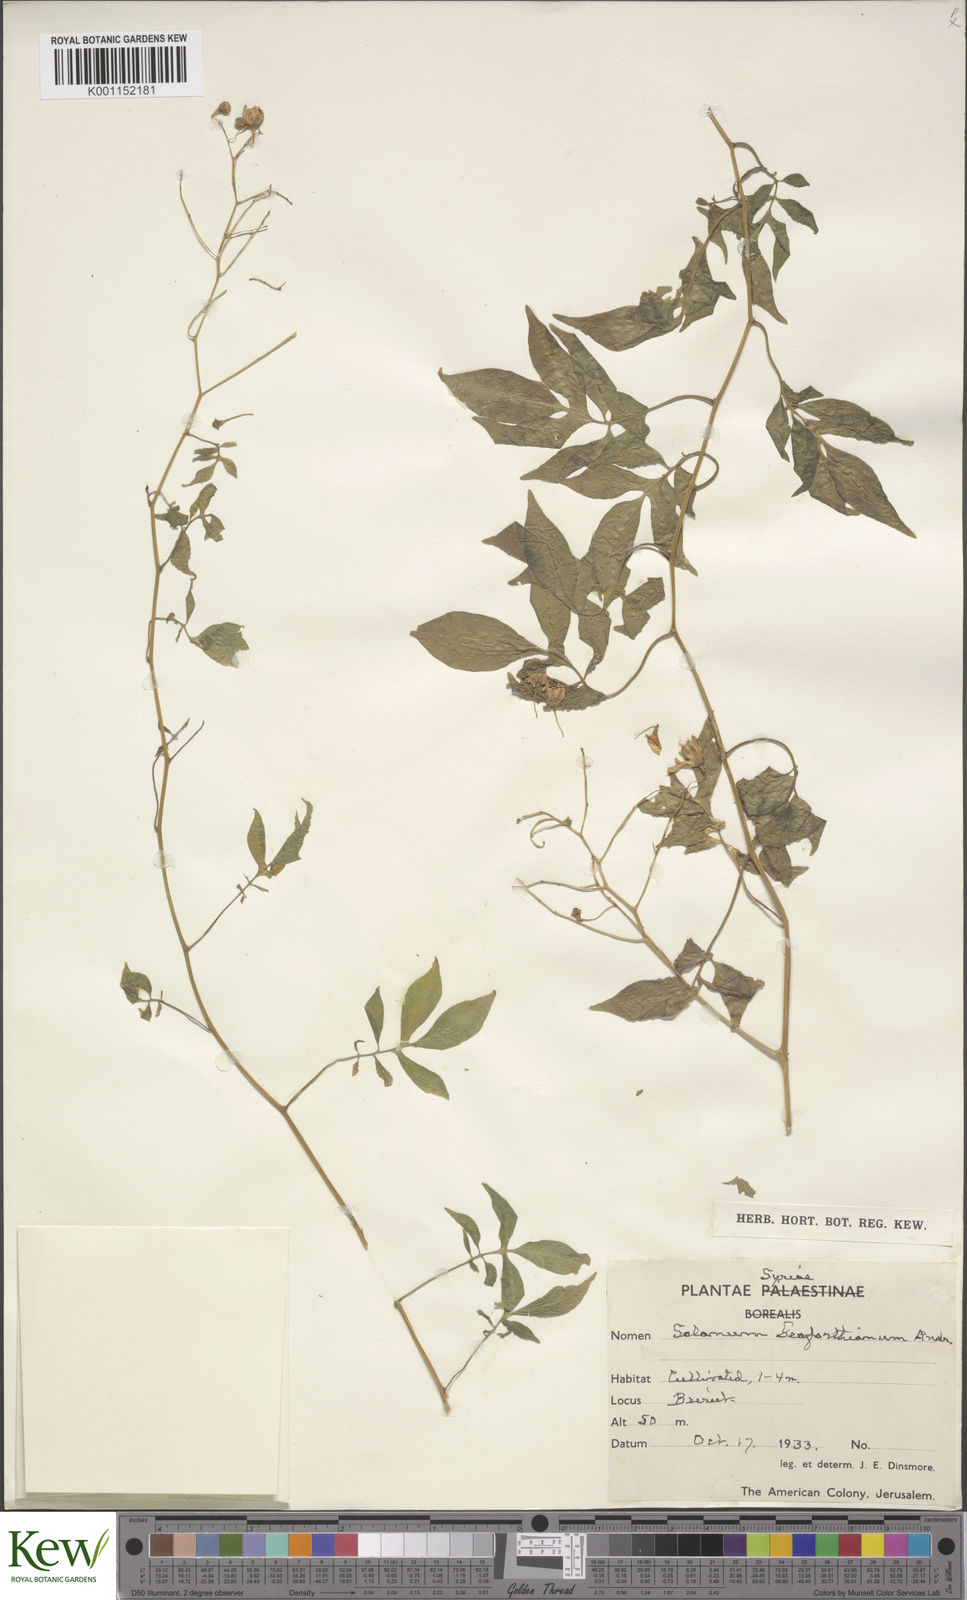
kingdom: Plantae
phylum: Tracheophyta
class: Magnoliopsida
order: Solanales
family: Solanaceae
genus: Solanum
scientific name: Solanum seaforthianum
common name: Brazilian nightshade
